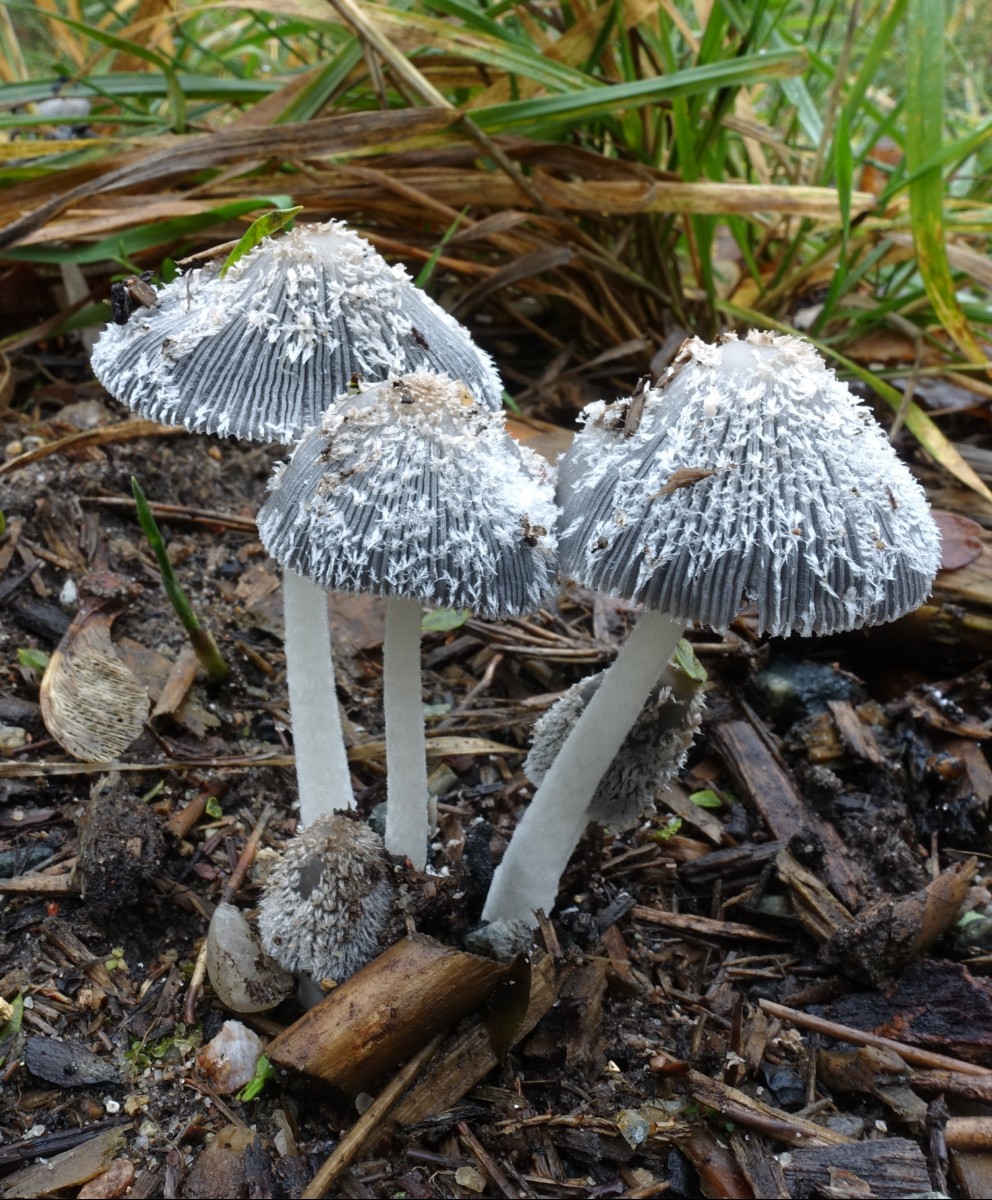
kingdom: Fungi
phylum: Basidiomycota
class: Agaricomycetes
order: Agaricales
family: Psathyrellaceae
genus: Coprinopsis
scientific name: Coprinopsis lagopus
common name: dunstokket blækhat
